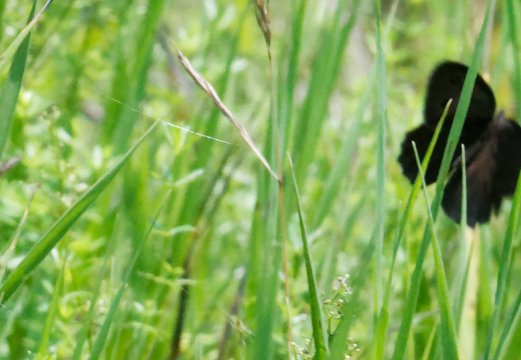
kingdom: Animalia
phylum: Arthropoda
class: Insecta
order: Lepidoptera
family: Nymphalidae
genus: Cercyonis
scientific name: Cercyonis pegala
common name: Common Wood-Nymph
